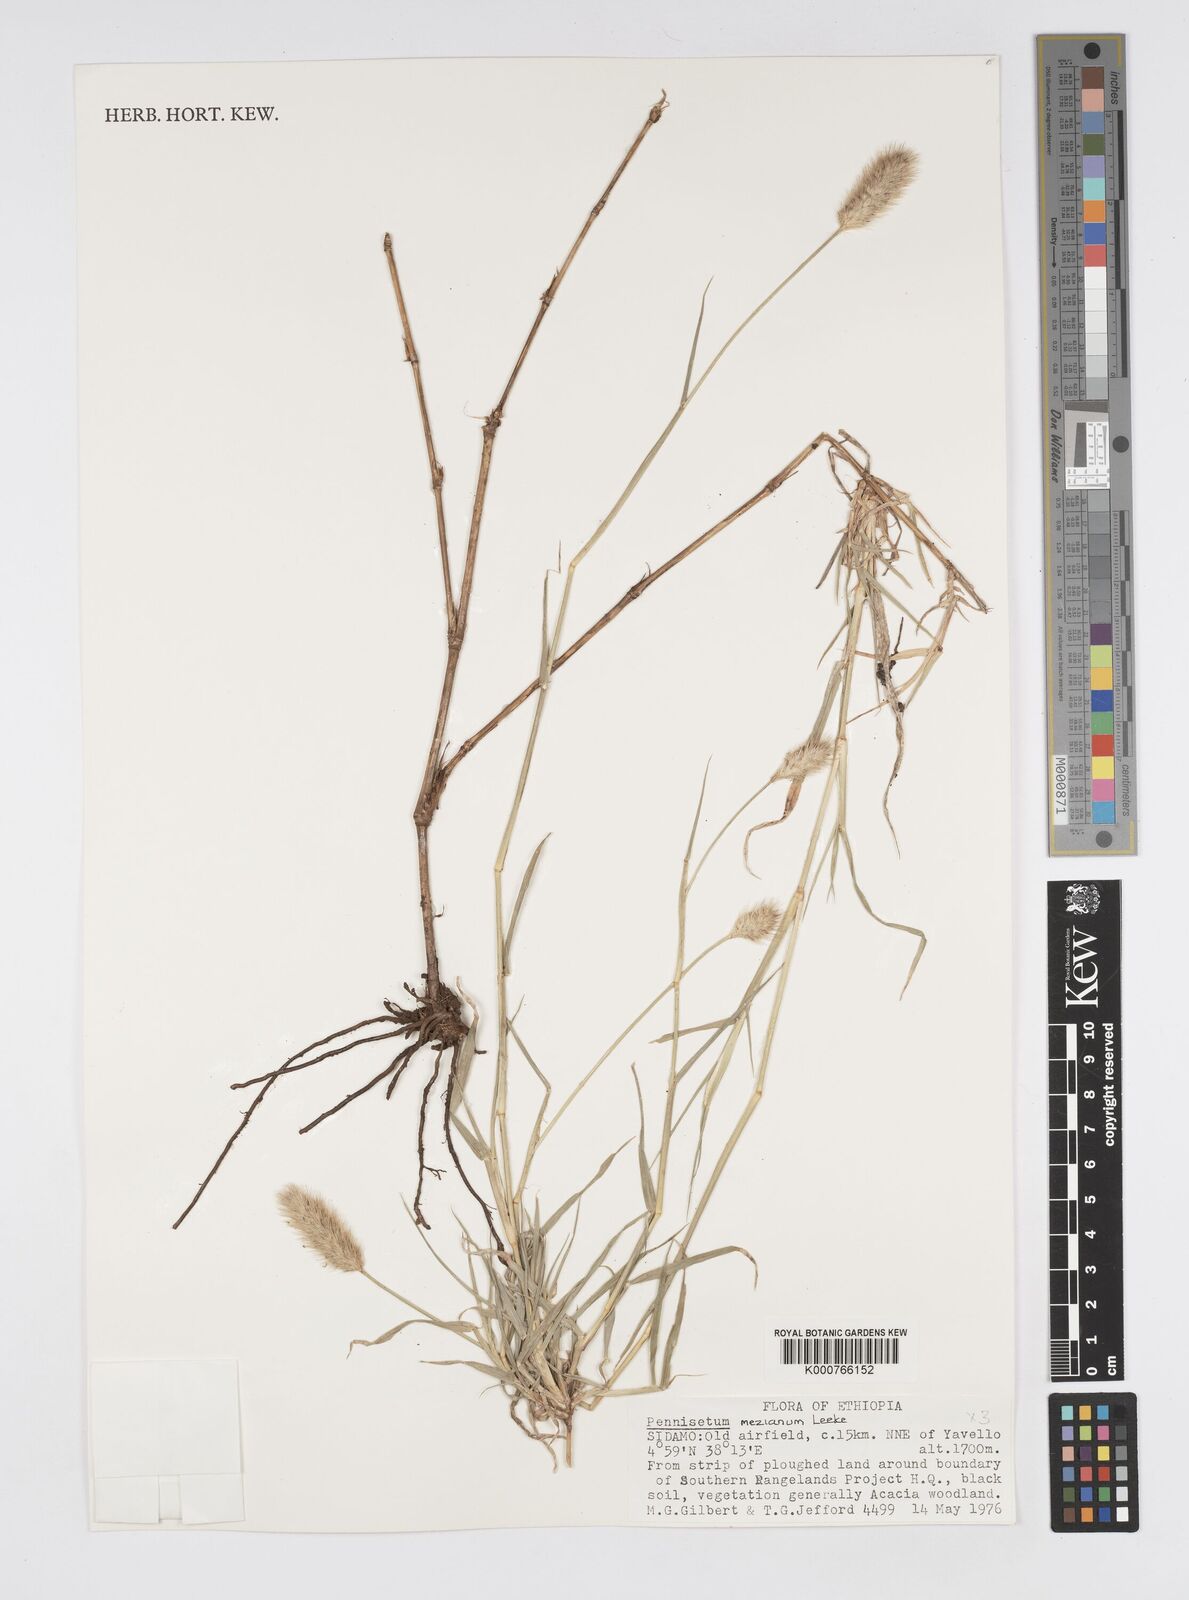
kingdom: Plantae
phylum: Tracheophyta
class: Liliopsida
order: Poales
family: Poaceae
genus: Cenchrus
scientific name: Cenchrus mezianus
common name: Bamboo grass
